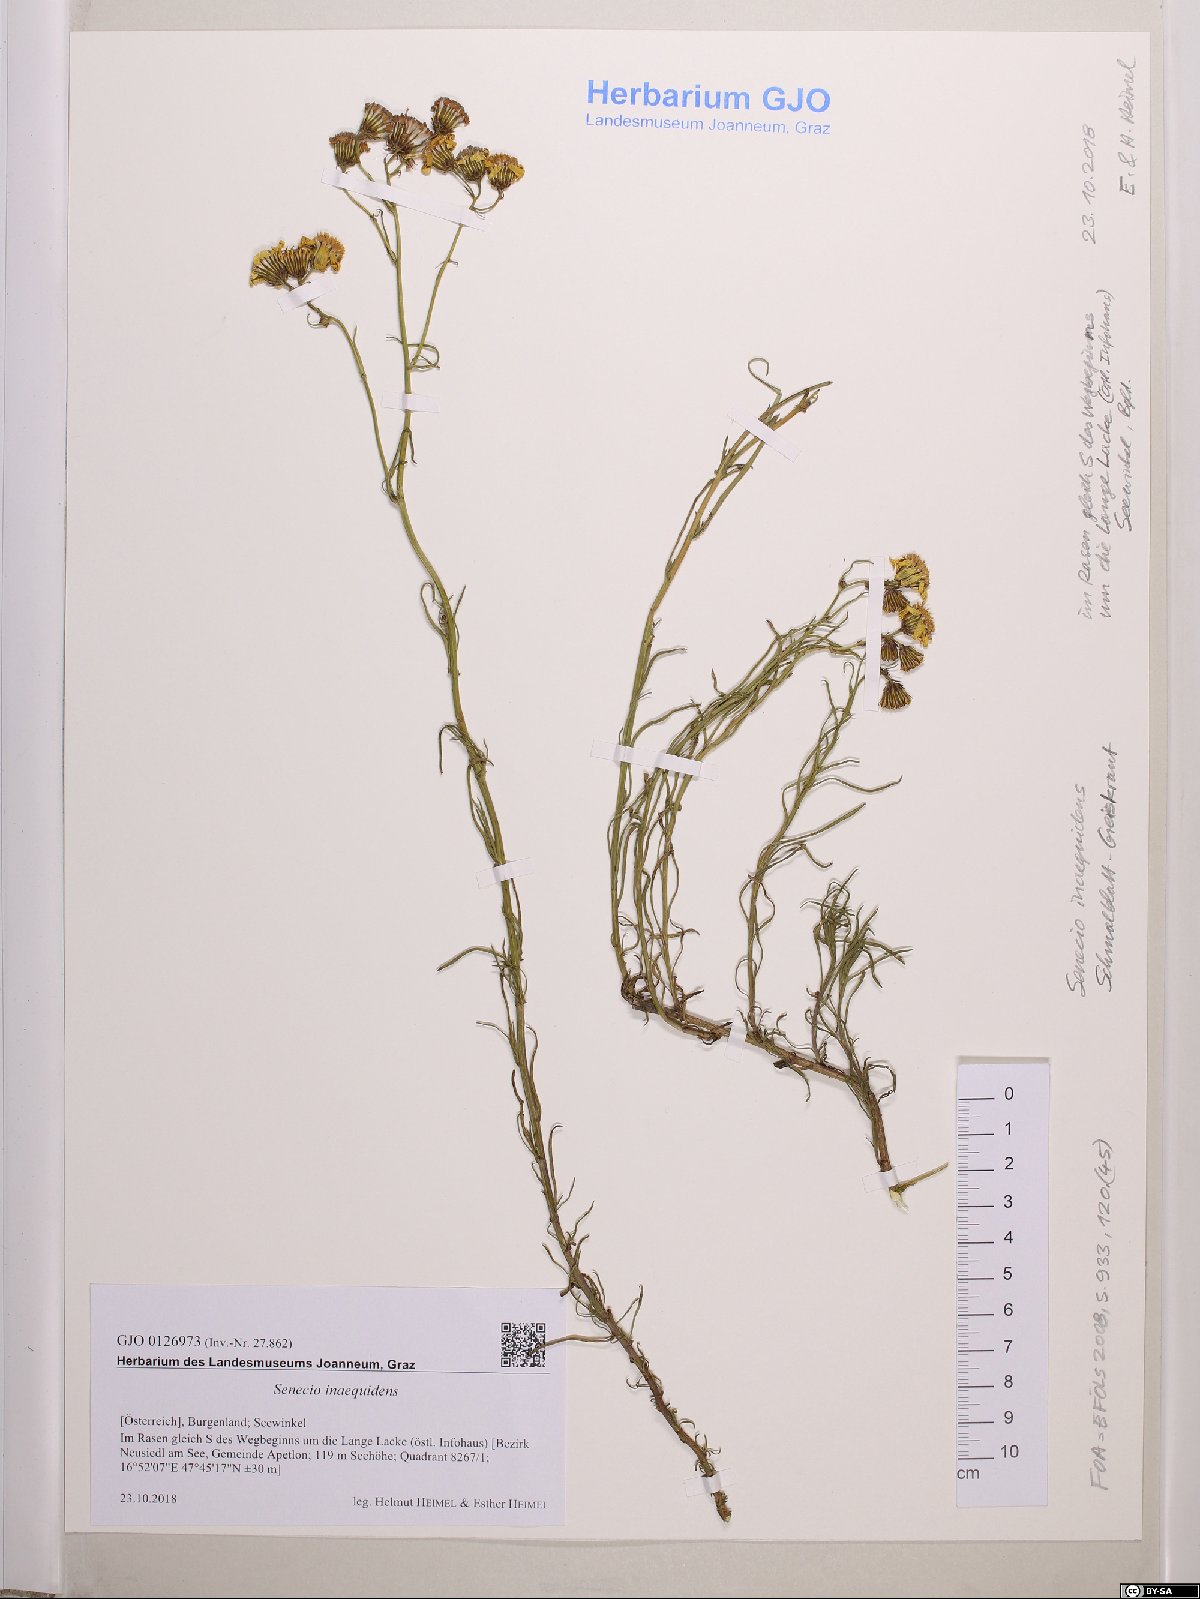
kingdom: Plantae
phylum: Tracheophyta
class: Magnoliopsida
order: Asterales
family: Asteraceae
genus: Senecio
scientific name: Senecio inaequidens
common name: Narrow-leaved ragwort
